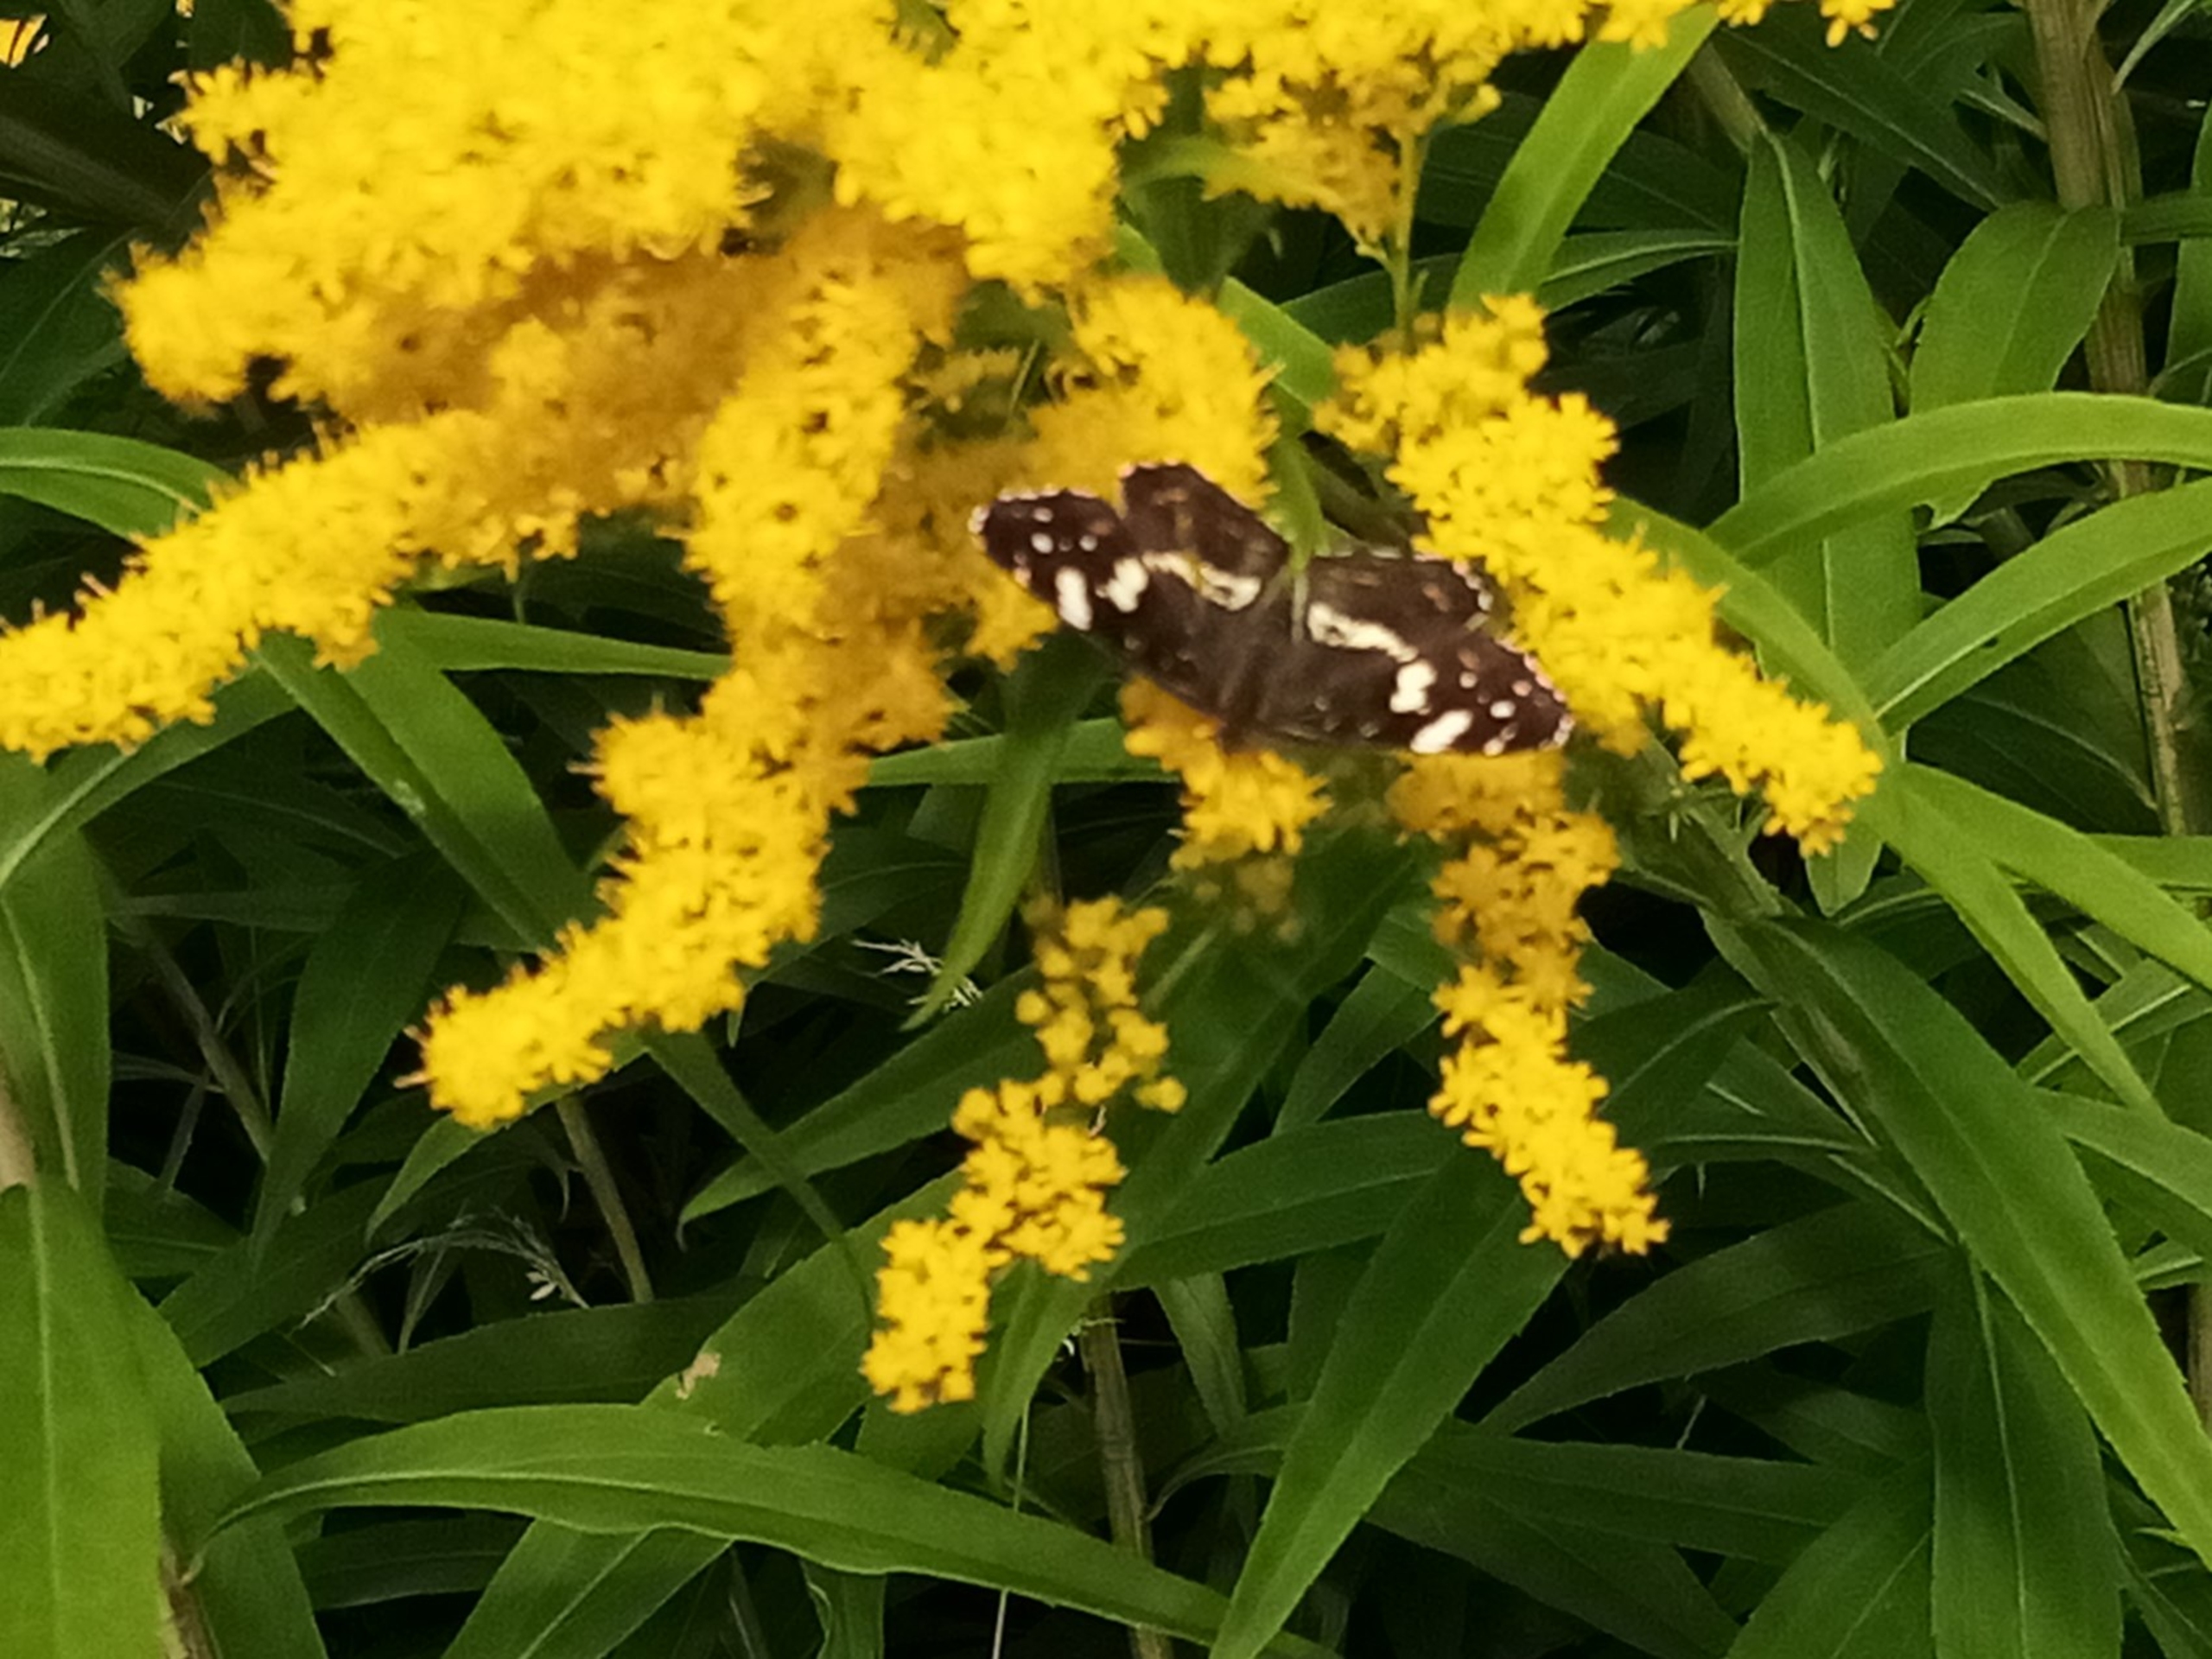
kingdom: Animalia
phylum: Arthropoda
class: Insecta
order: Lepidoptera
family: Nymphalidae
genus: Araschnia
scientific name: Araschnia levana
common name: Nældesommerfugl
